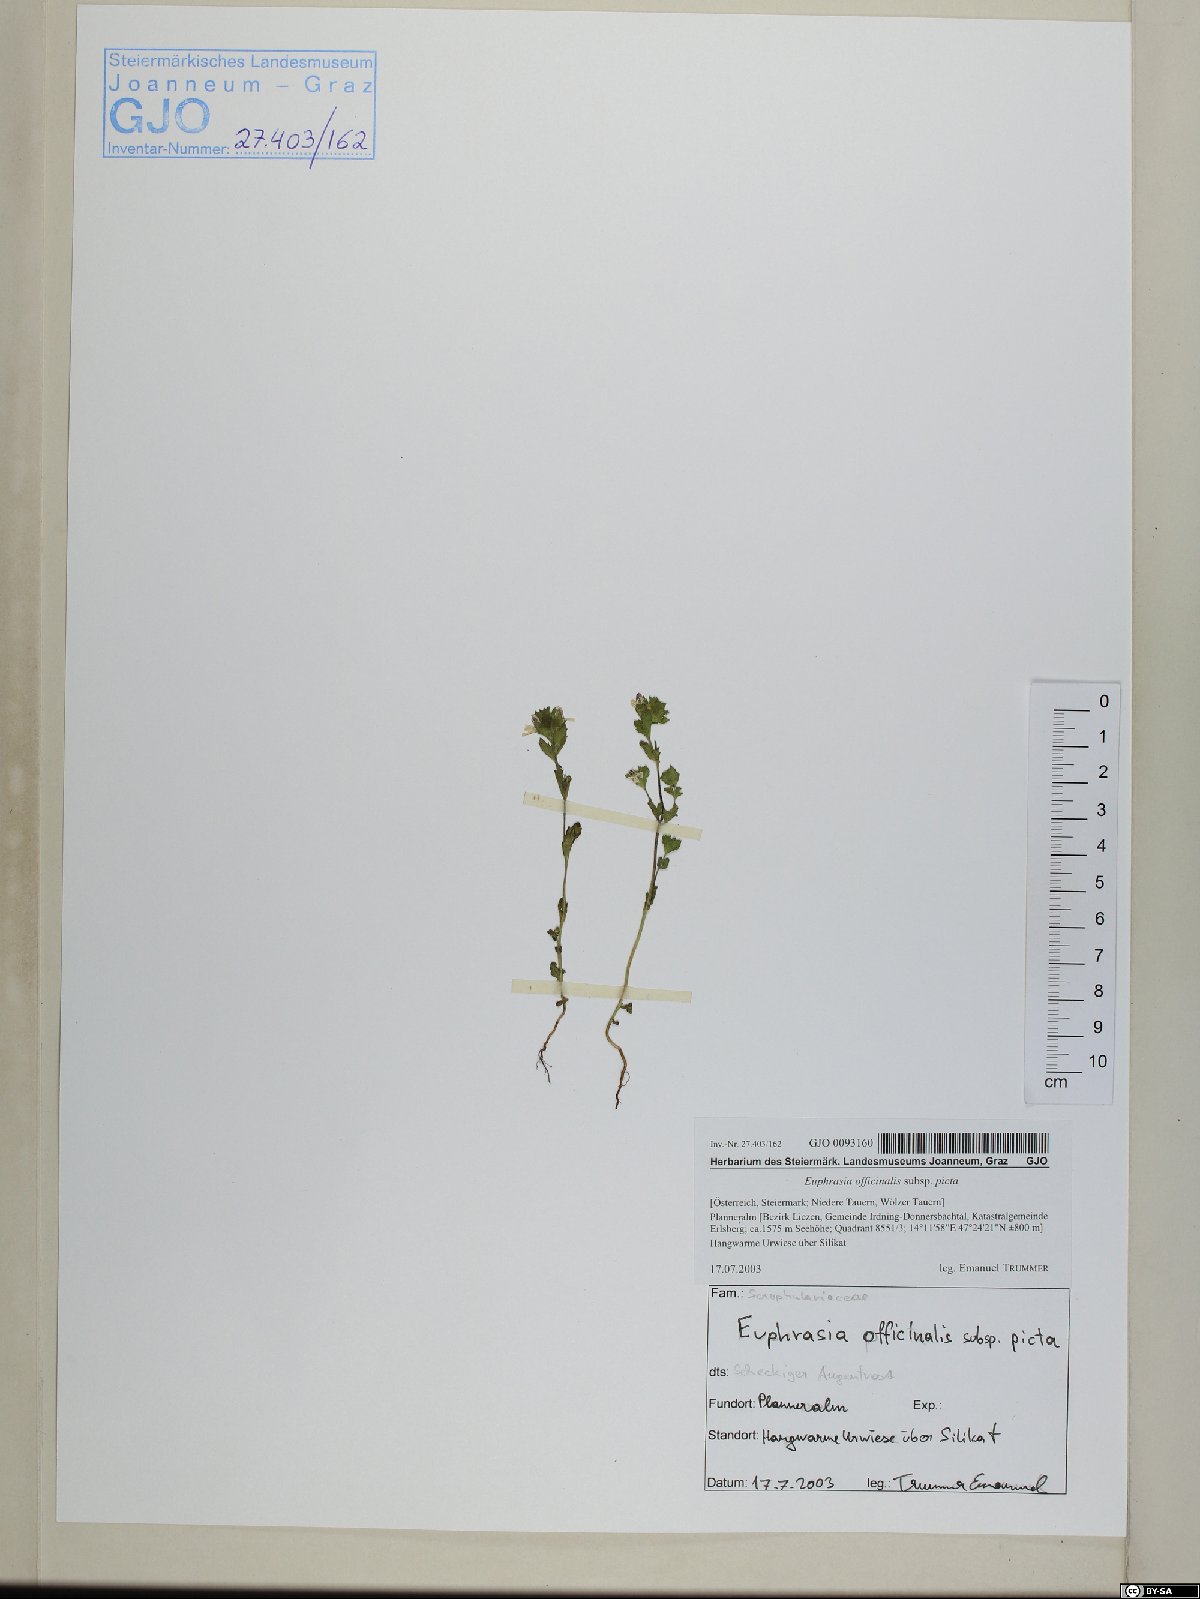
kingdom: Plantae
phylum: Tracheophyta
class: Magnoliopsida
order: Lamiales
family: Orobanchaceae
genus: Euphrasia
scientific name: Euphrasia officinalis
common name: Eyebright
